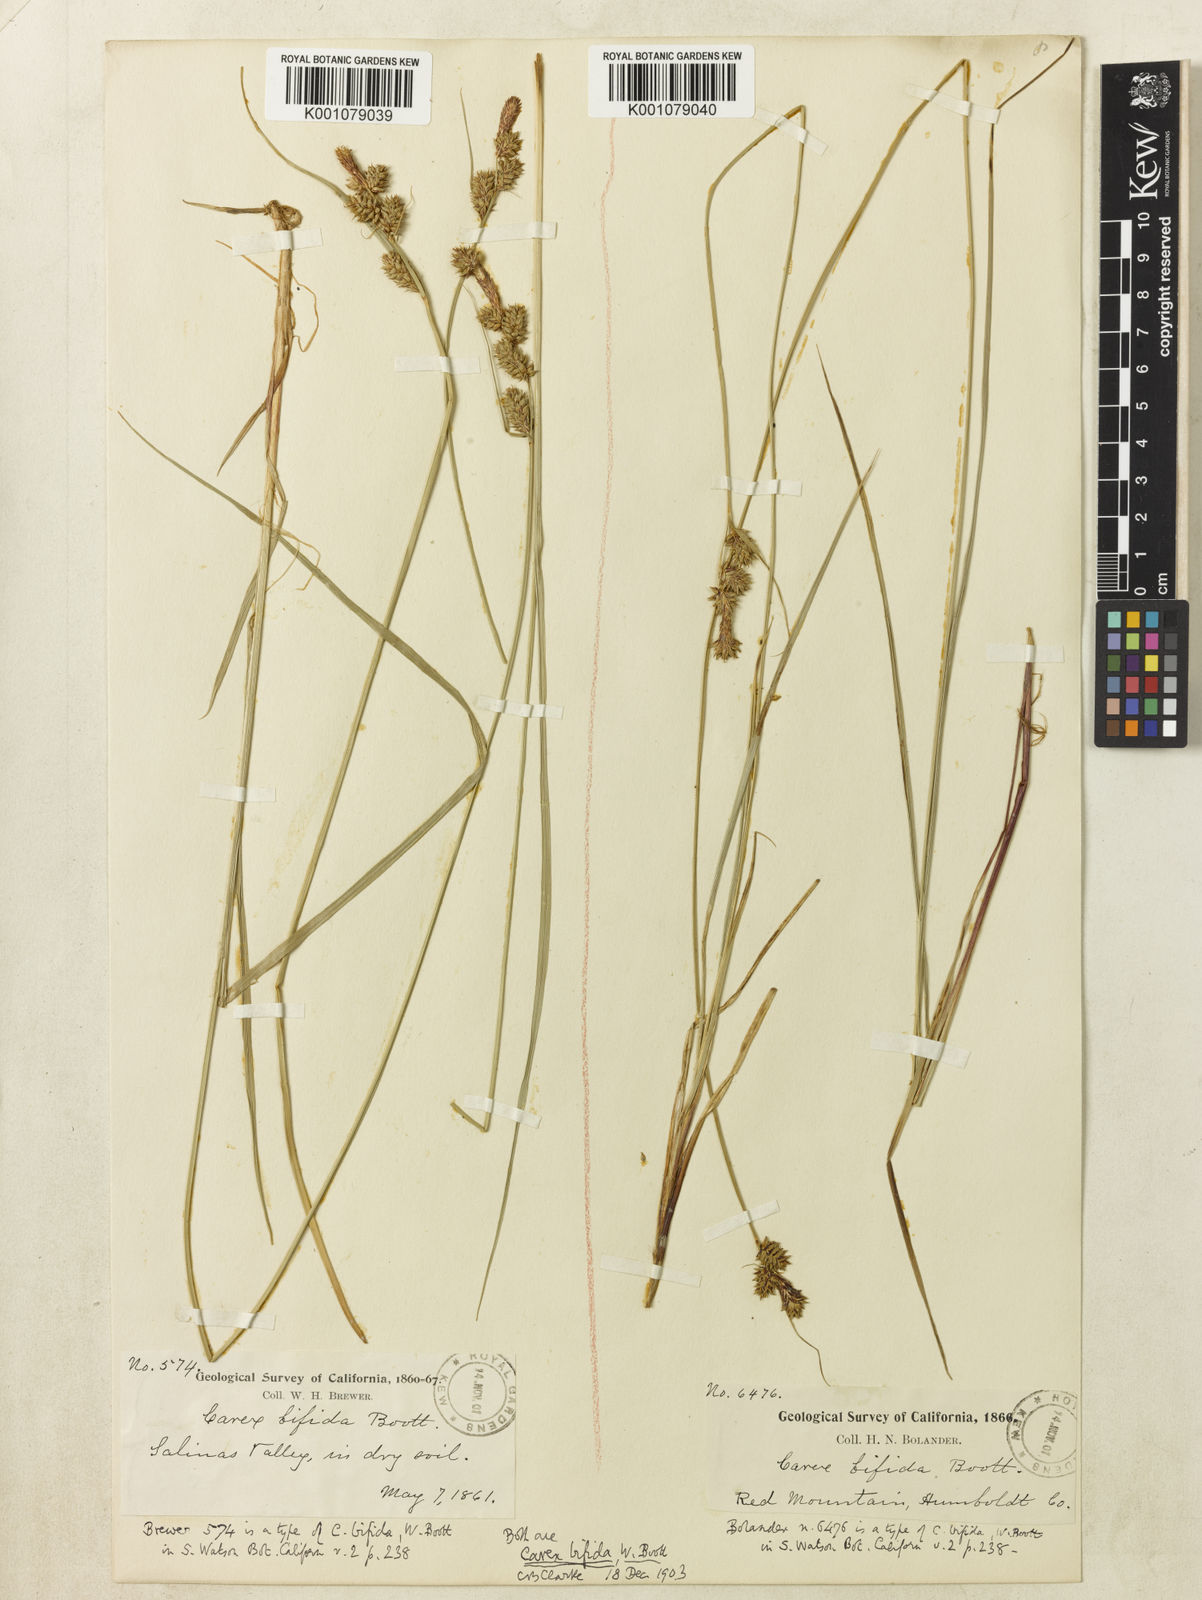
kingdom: Plantae
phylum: Tracheophyta
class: Liliopsida
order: Poales
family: Cyperaceae
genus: Carex
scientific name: Carex serratodens
